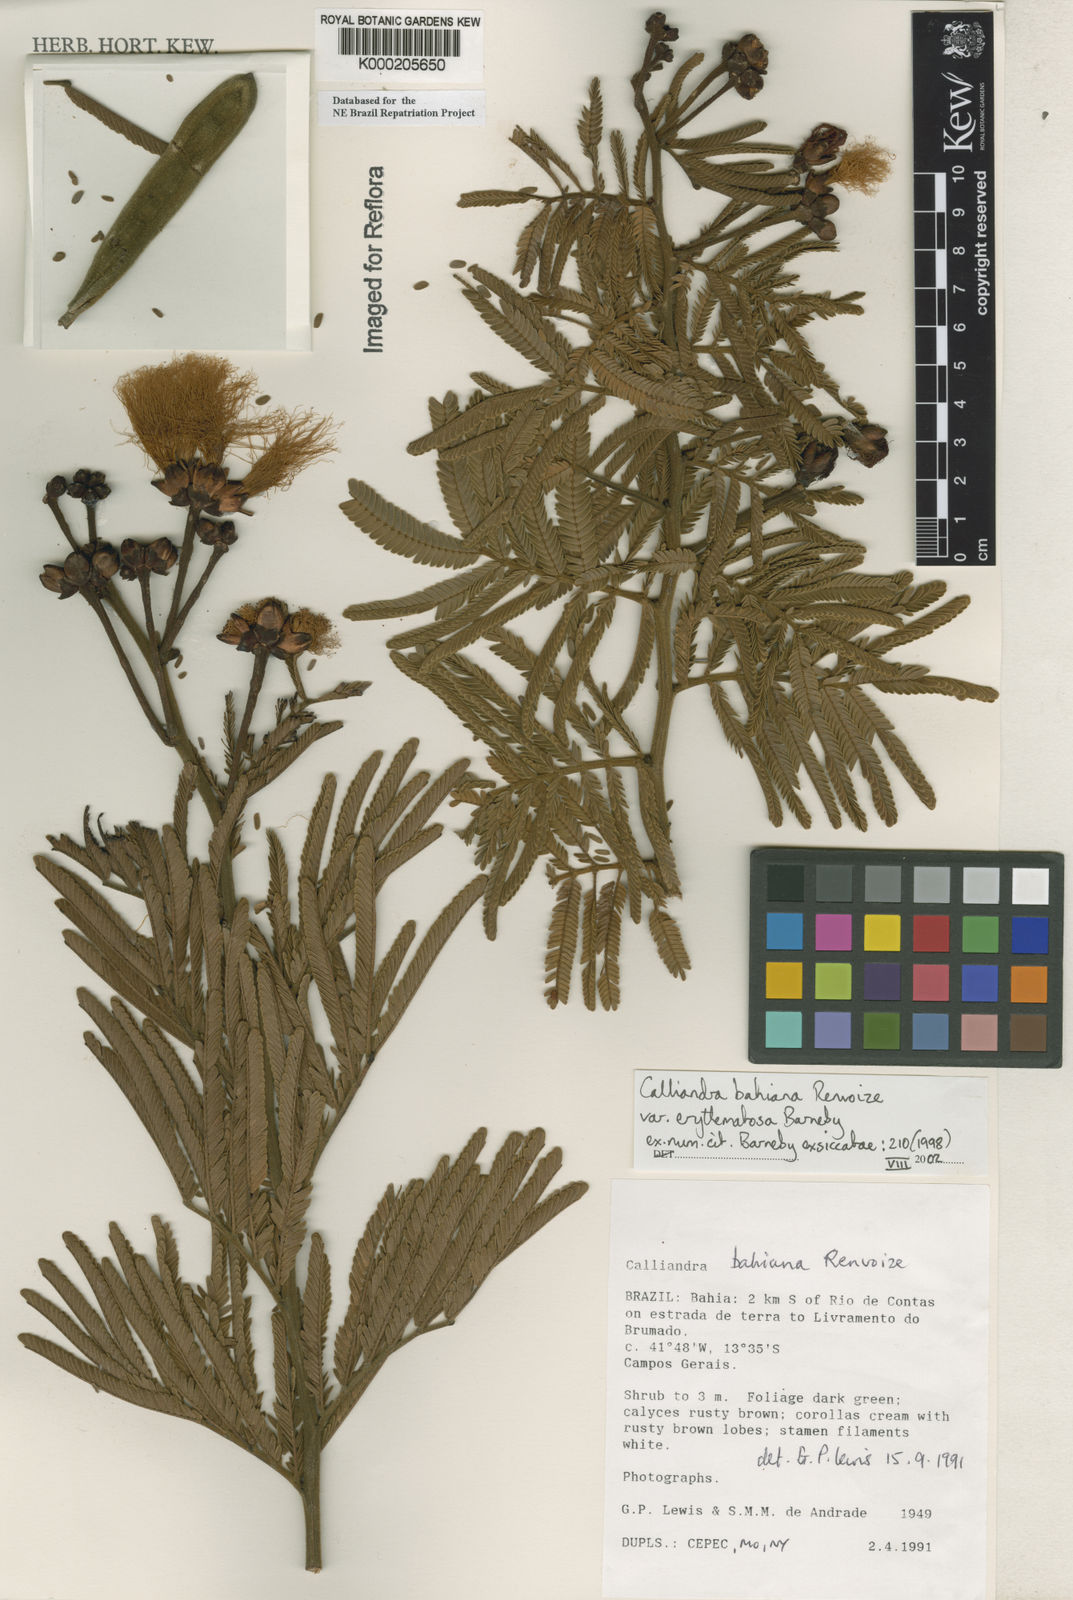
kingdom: Plantae
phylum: Tracheophyta
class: Magnoliopsida
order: Fabales
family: Fabaceae
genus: Calliandra
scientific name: Calliandra bahiana
